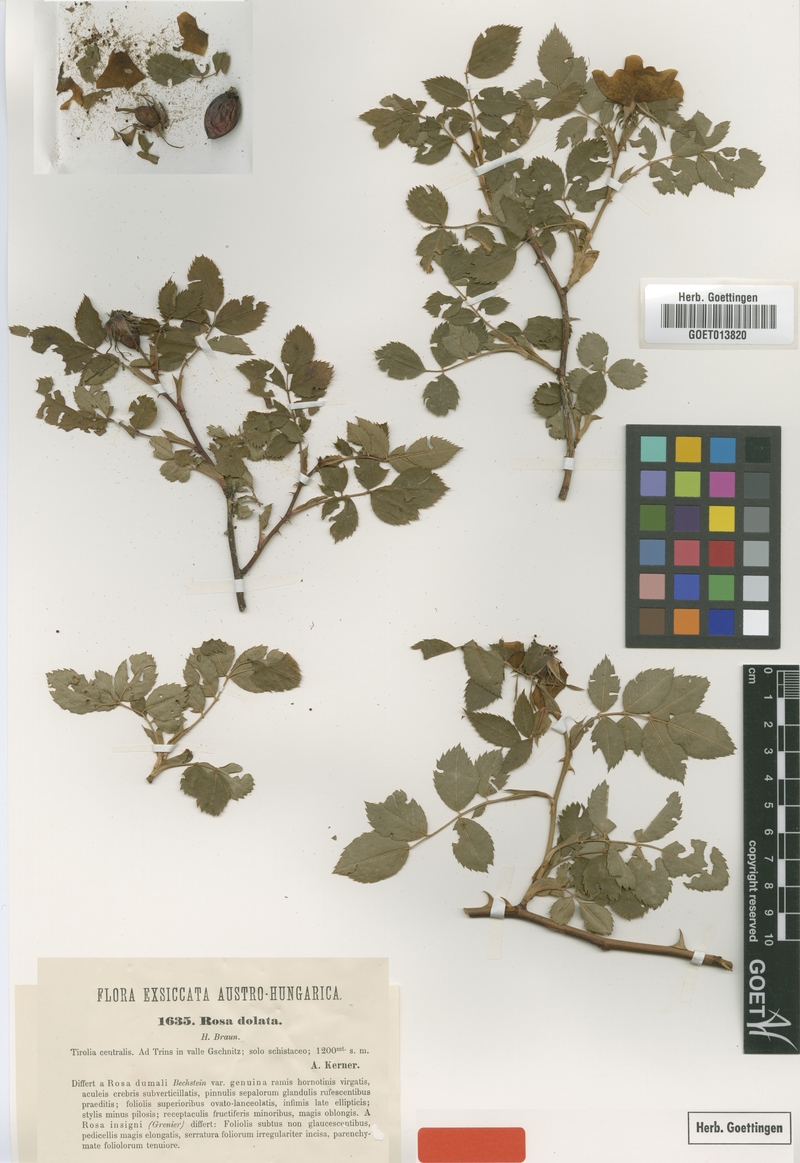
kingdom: Plantae
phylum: Tracheophyta
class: Magnoliopsida
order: Rosales
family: Rosaceae
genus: Rosa
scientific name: Rosa dolata
